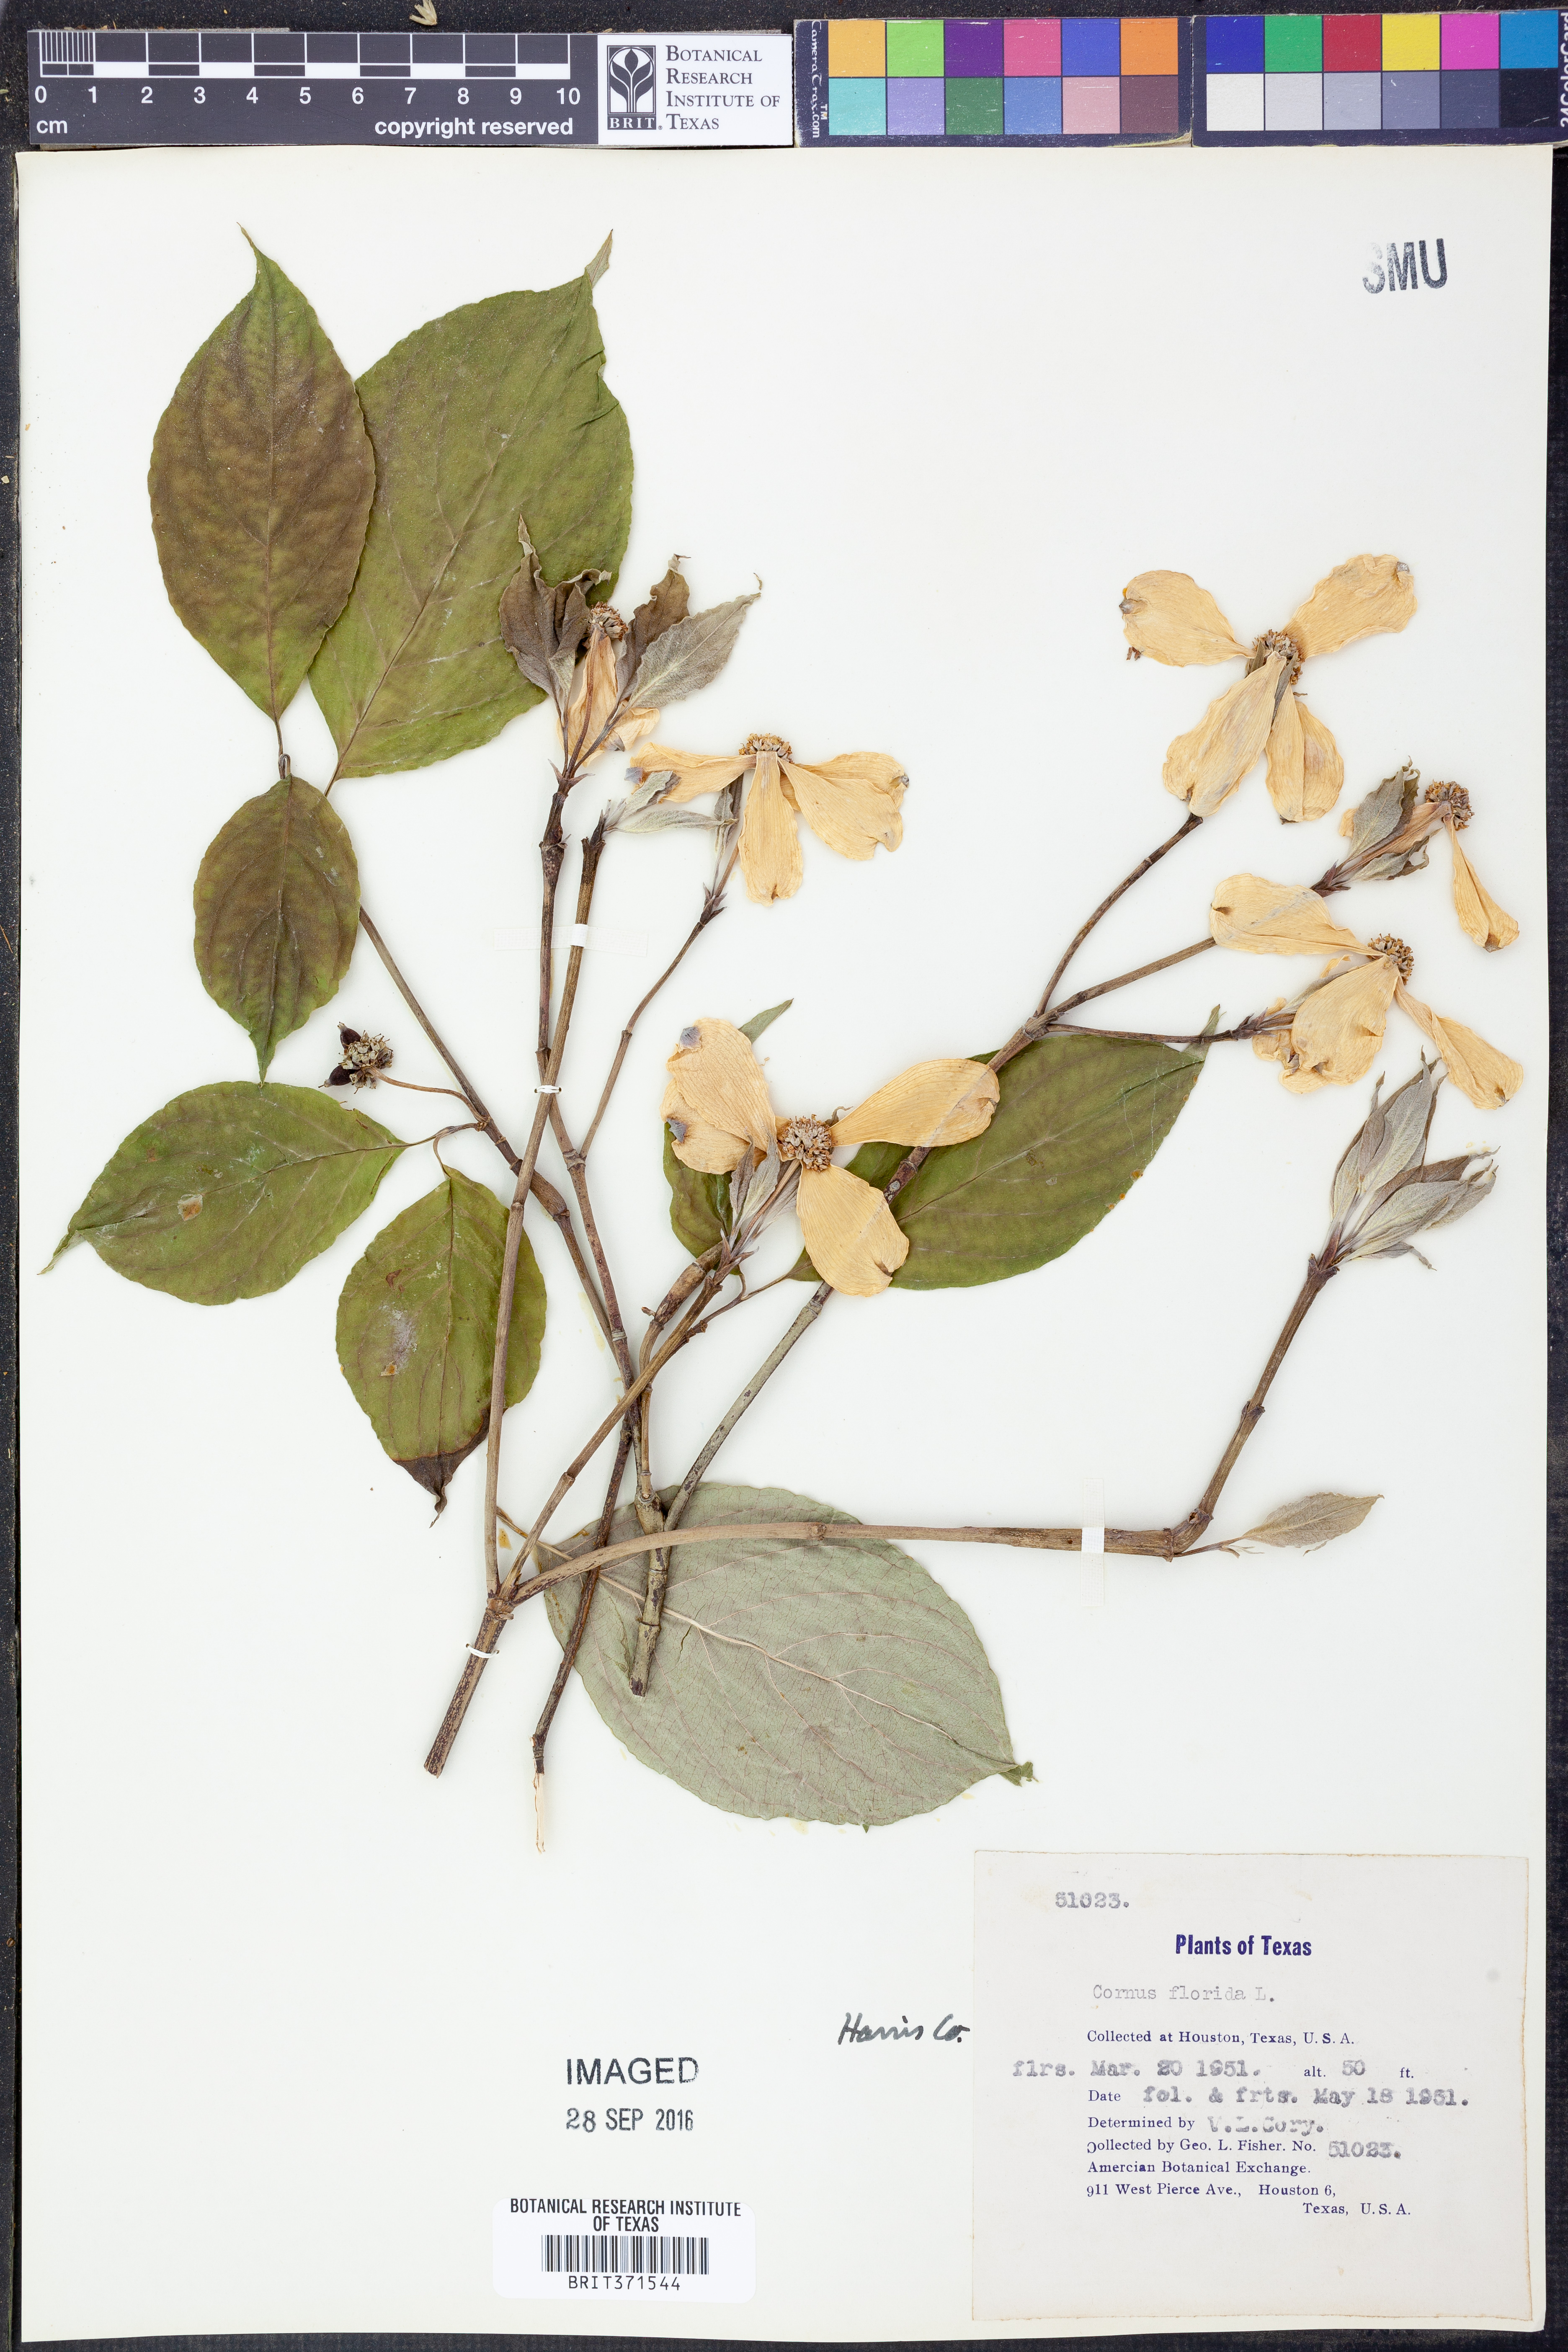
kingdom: Plantae
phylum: Tracheophyta
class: Magnoliopsida
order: Cornales
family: Cornaceae
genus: Cornus
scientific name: Cornus florida
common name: Flowering dogwood
